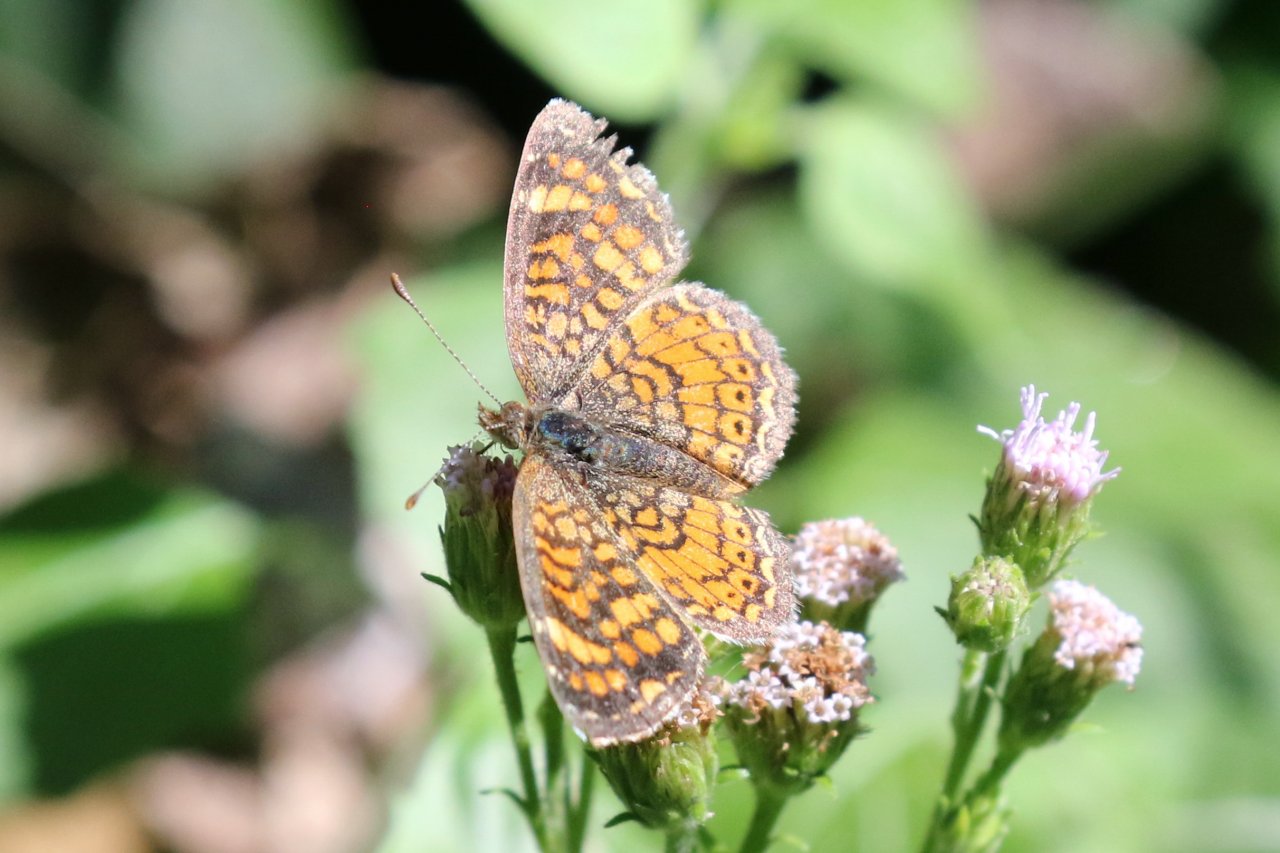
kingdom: Animalia
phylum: Arthropoda
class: Insecta
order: Lepidoptera
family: Nymphalidae
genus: Phyciodes
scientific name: Phyciodes vesta
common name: Vesta Crescent
